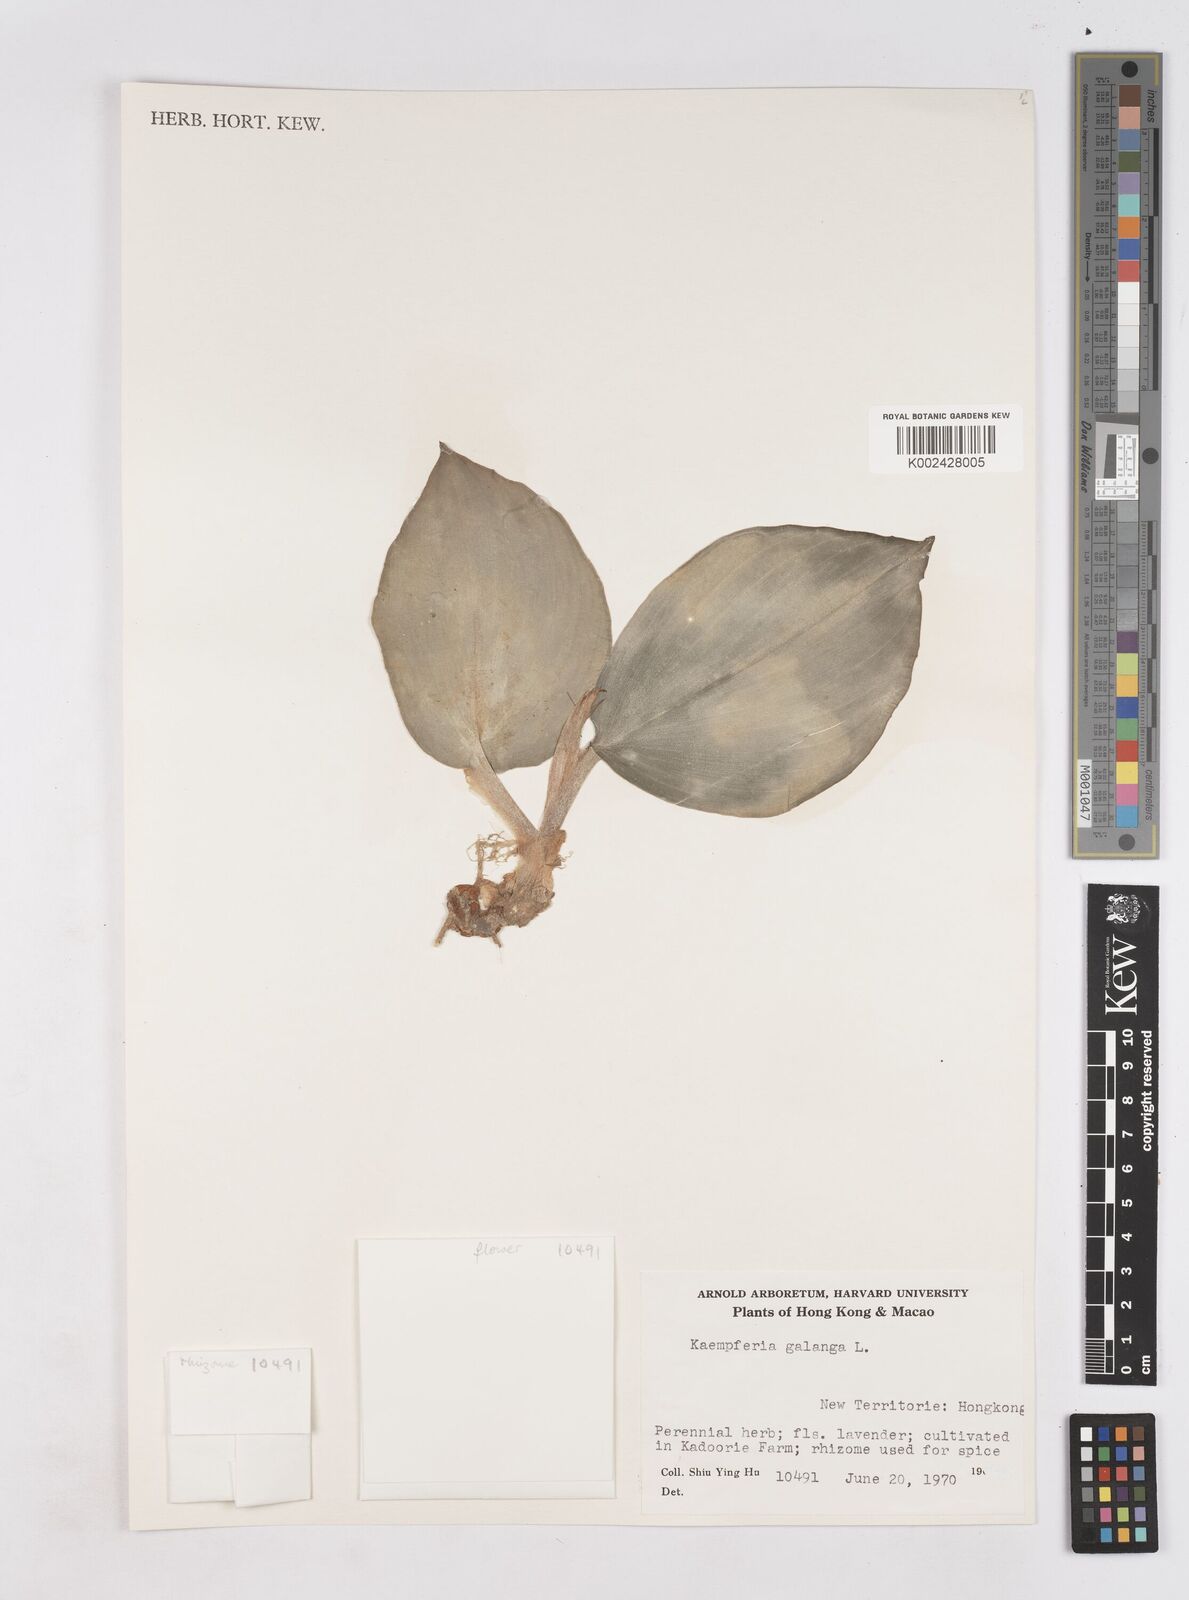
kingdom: Plantae
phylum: Tracheophyta
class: Liliopsida
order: Zingiberales
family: Zingiberaceae
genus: Kaempferia
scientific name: Kaempferia galanga
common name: Aromatic ginger
